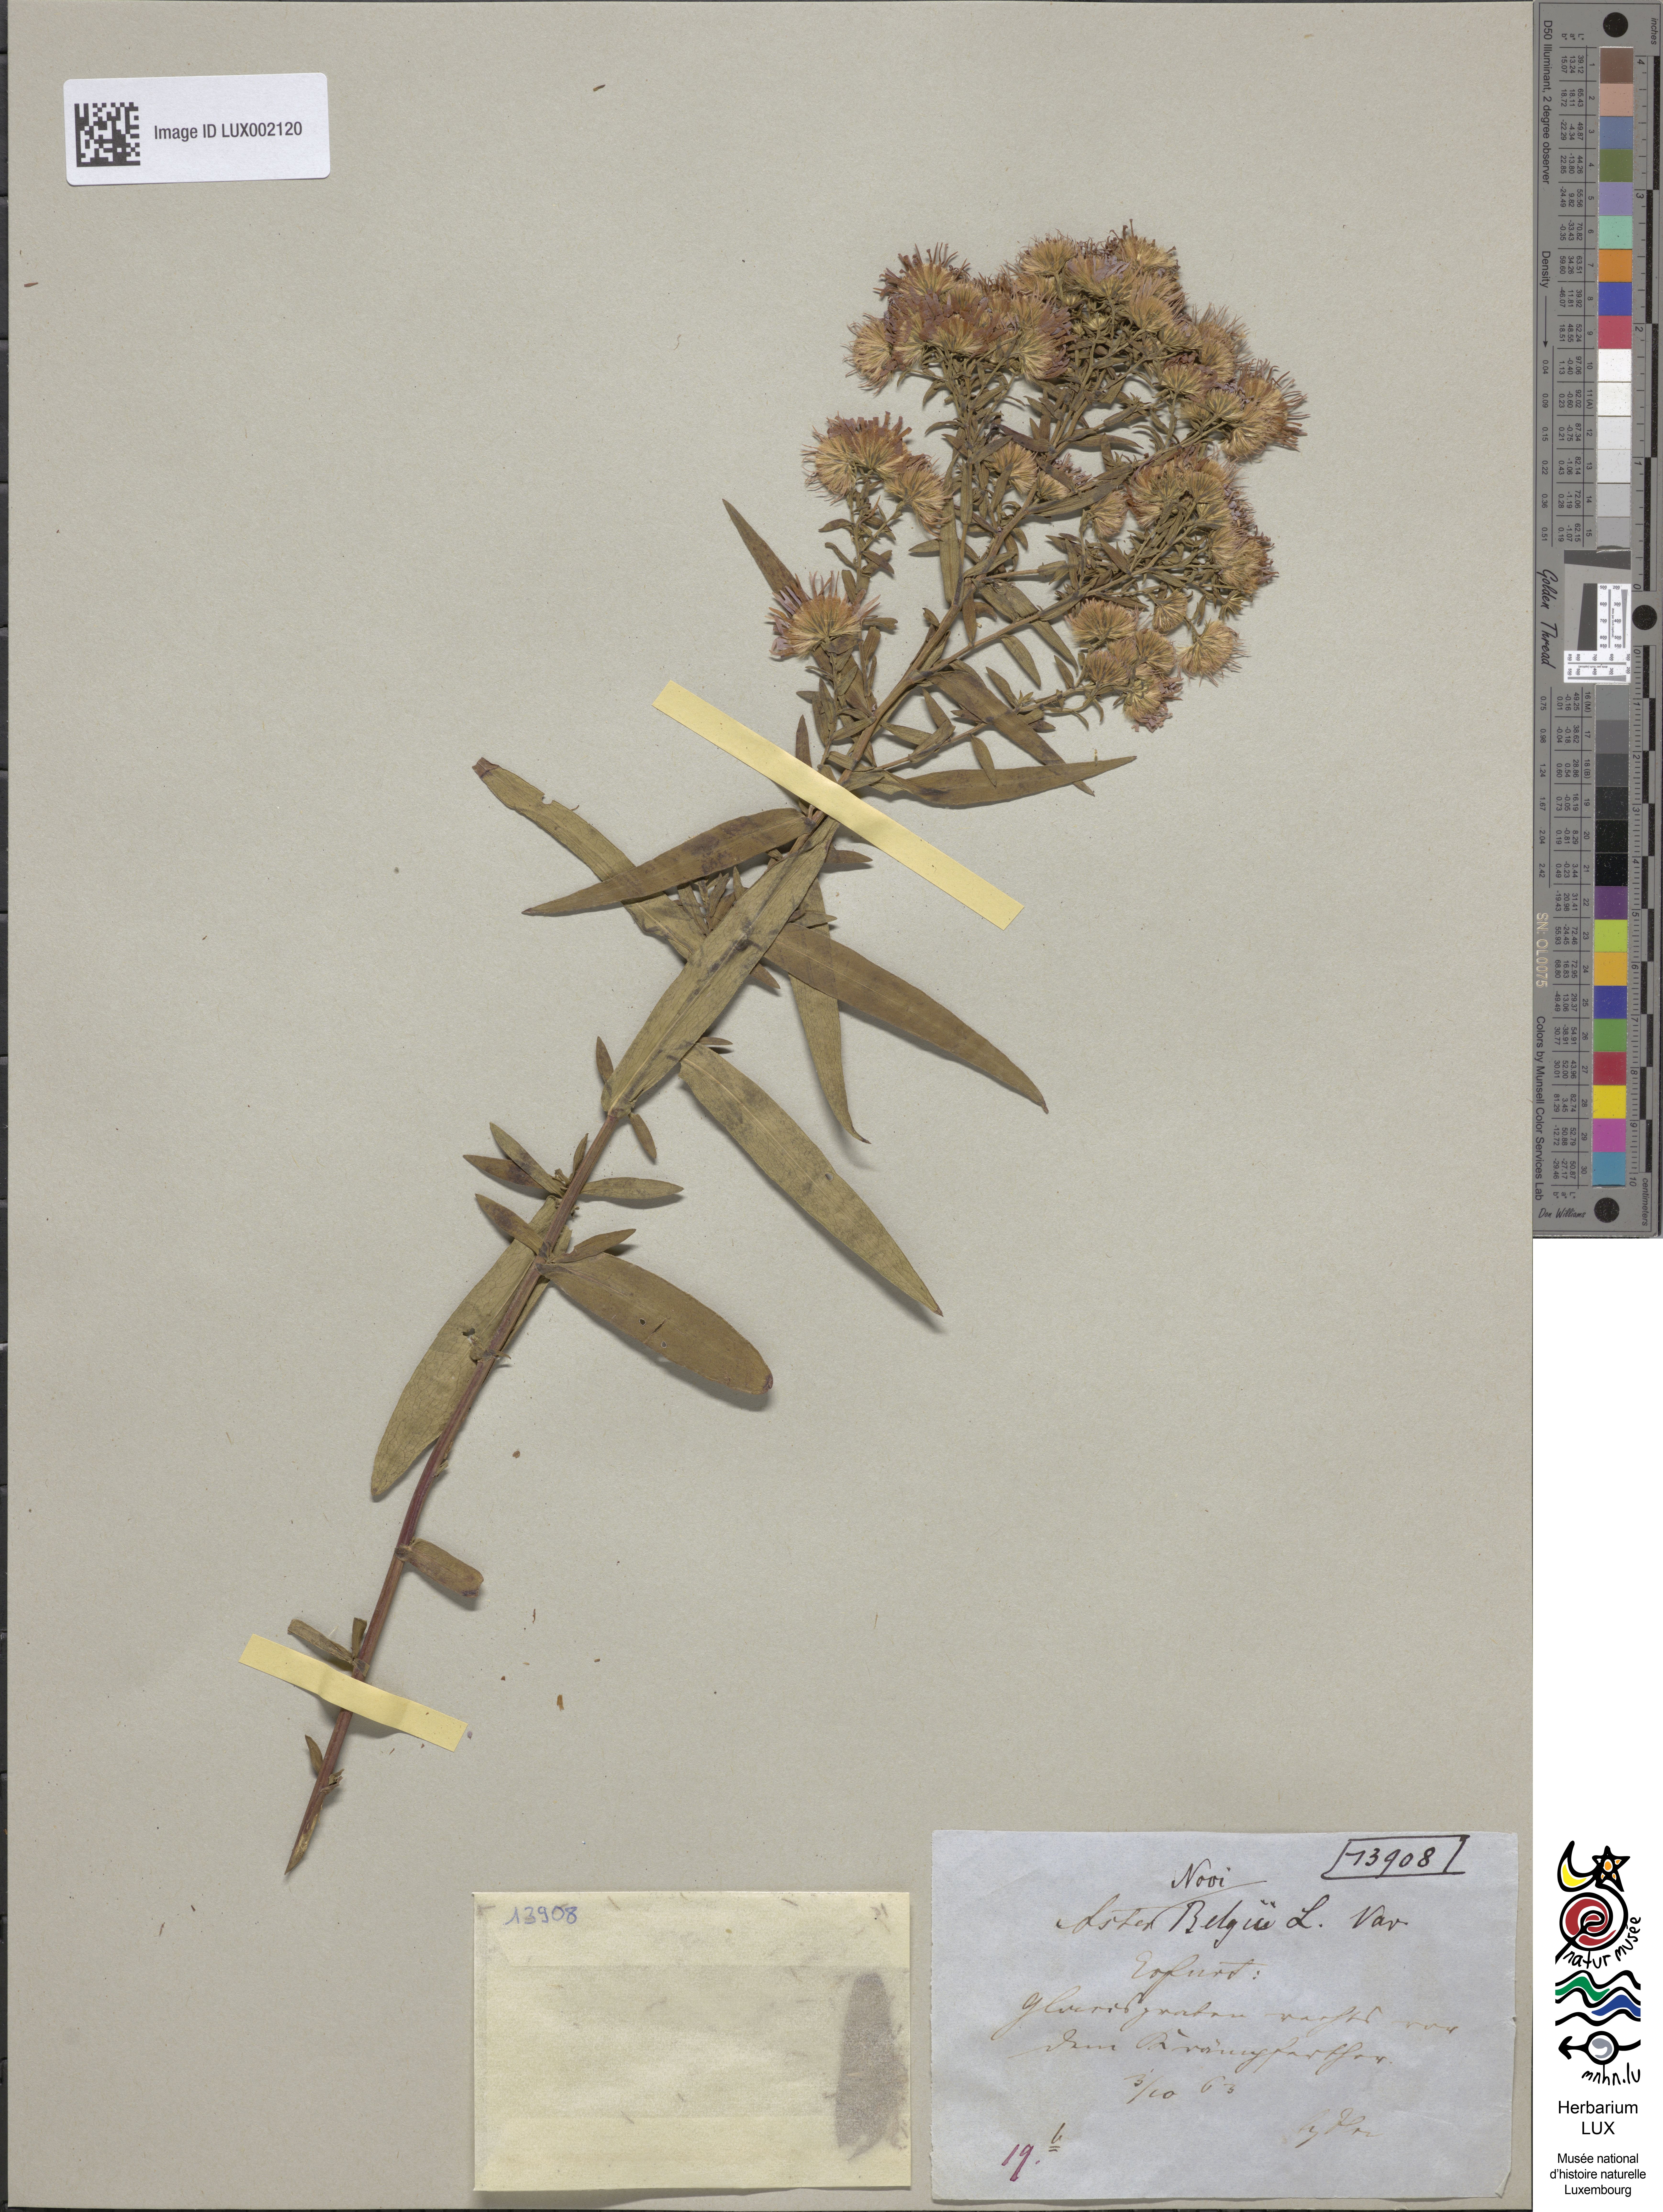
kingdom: Plantae
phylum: Tracheophyta
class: Magnoliopsida
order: Asterales
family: Asteraceae
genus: Symphyotrichum
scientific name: Symphyotrichum novi-belgii
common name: Michaelmas daisy
